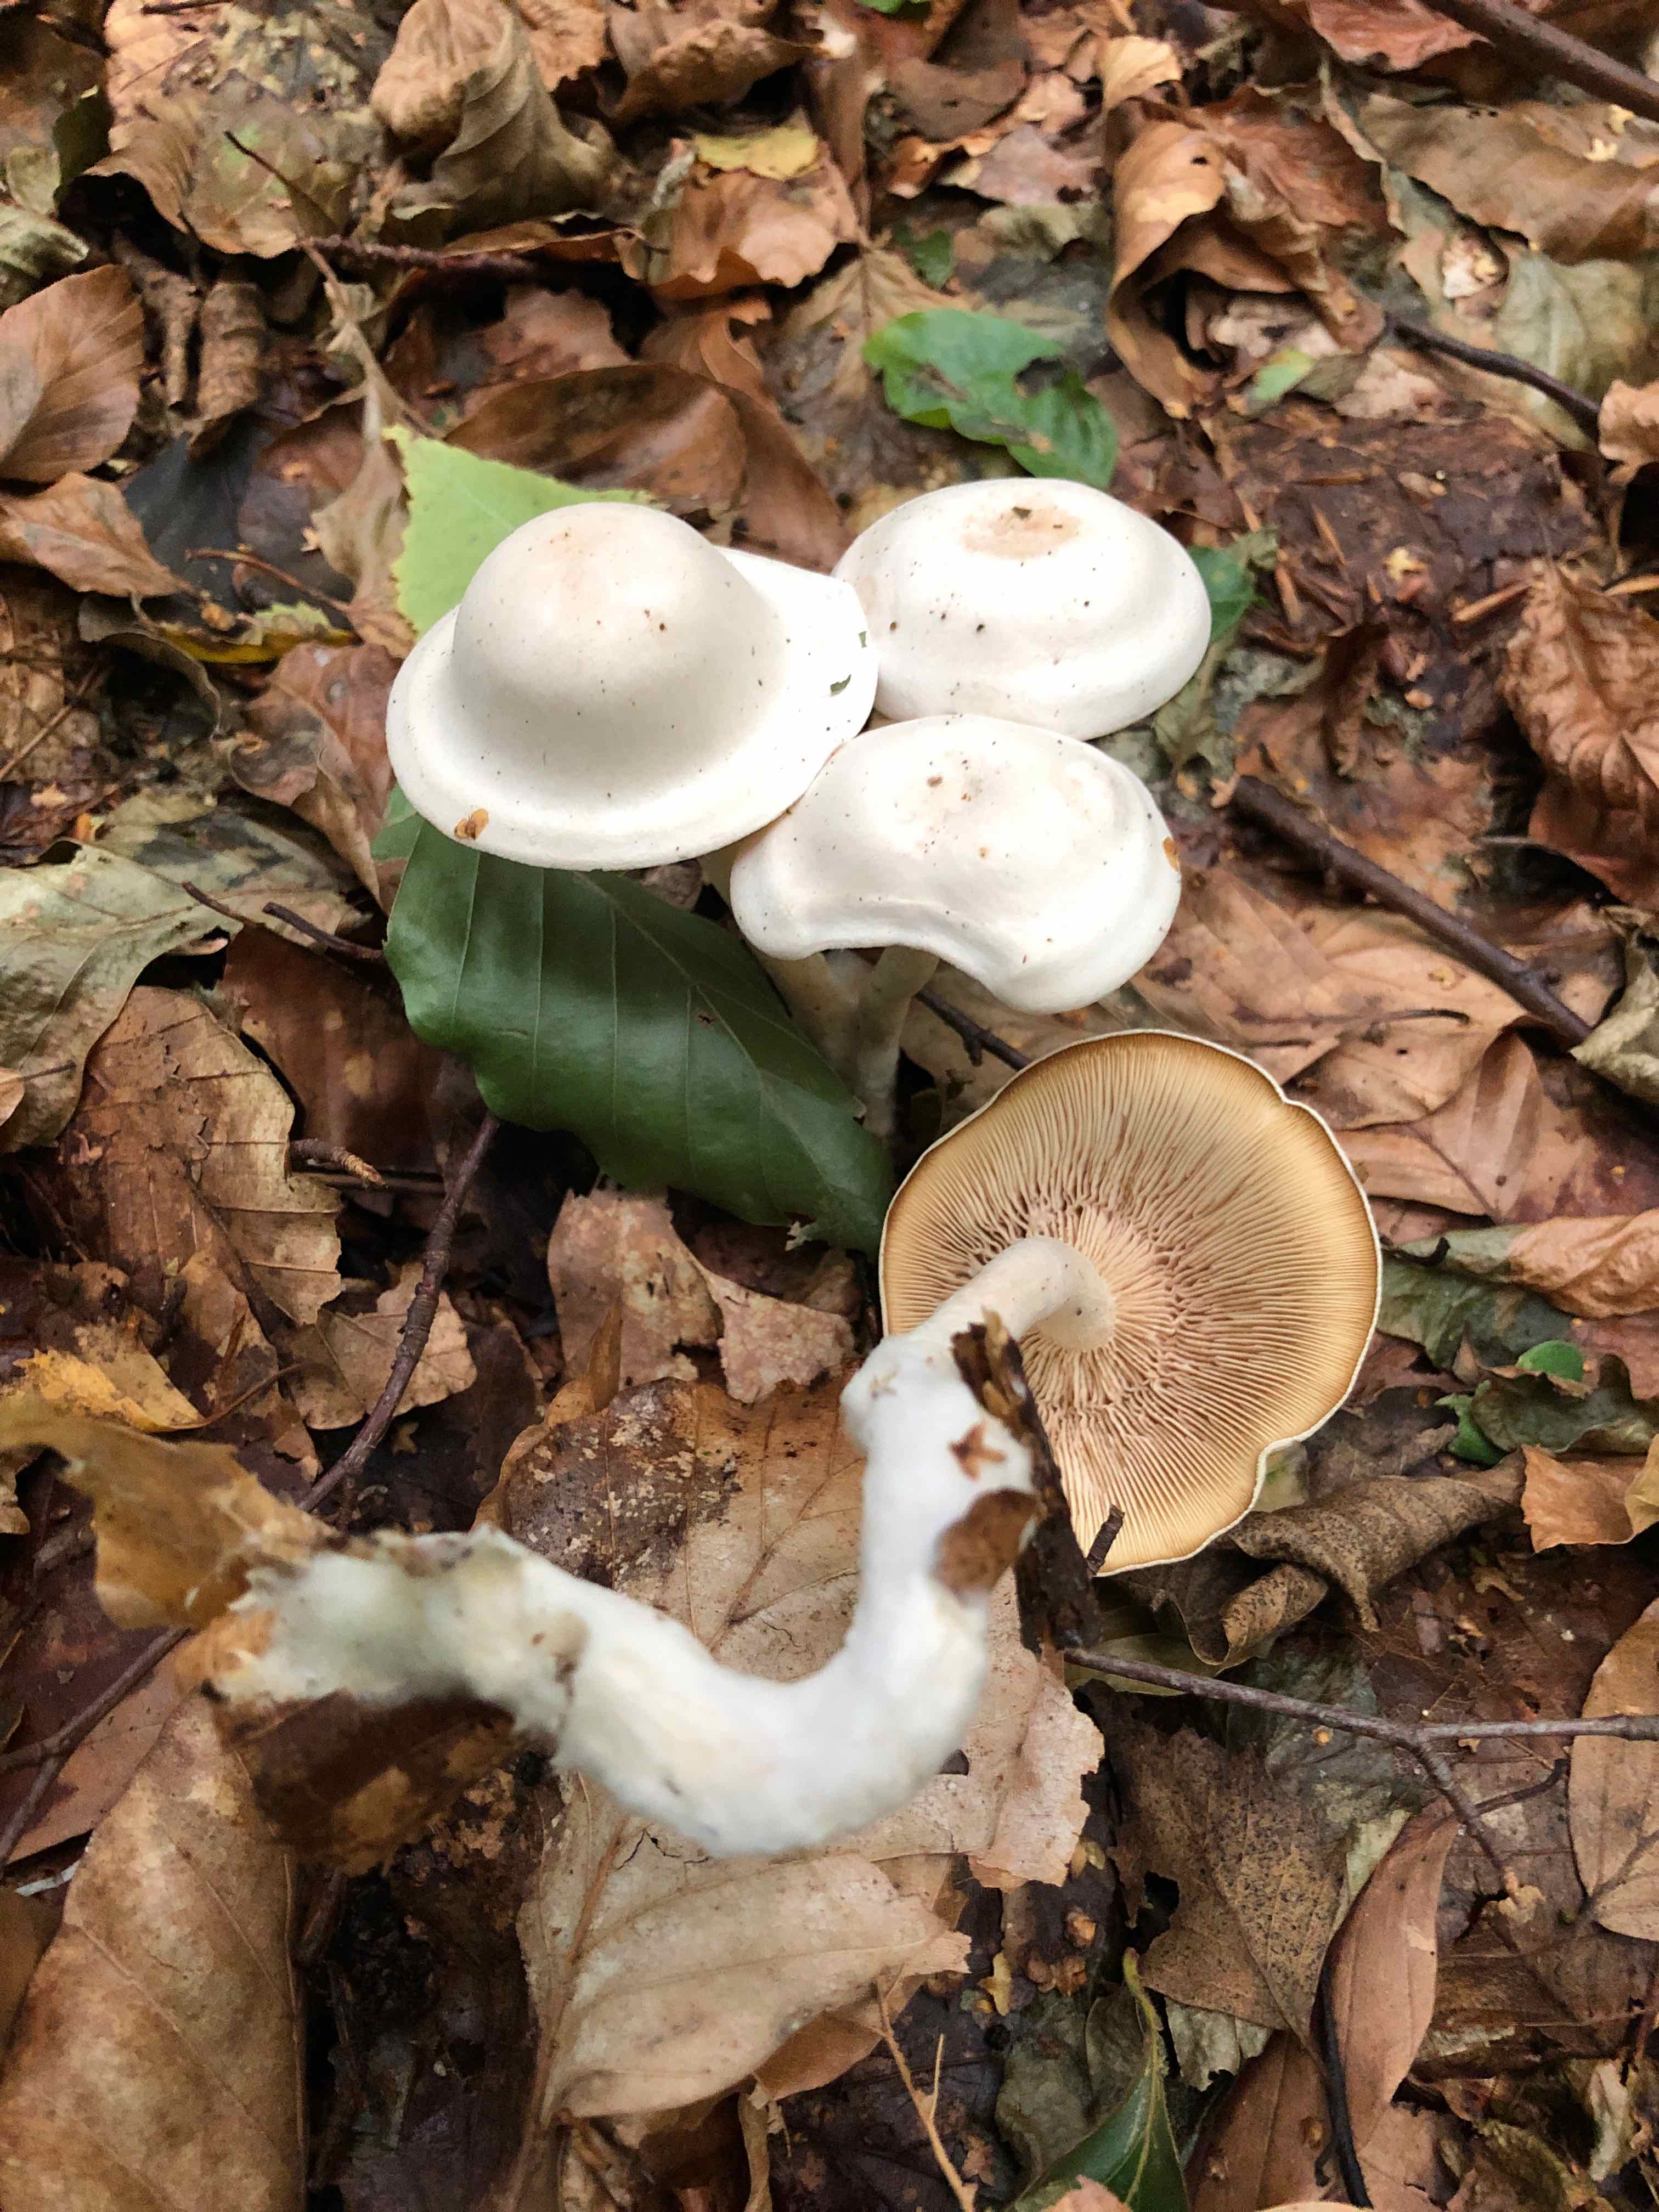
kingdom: Fungi
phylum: Basidiomycota
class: Agaricomycetes
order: Agaricales
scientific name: Agaricales
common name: champignonordenen
